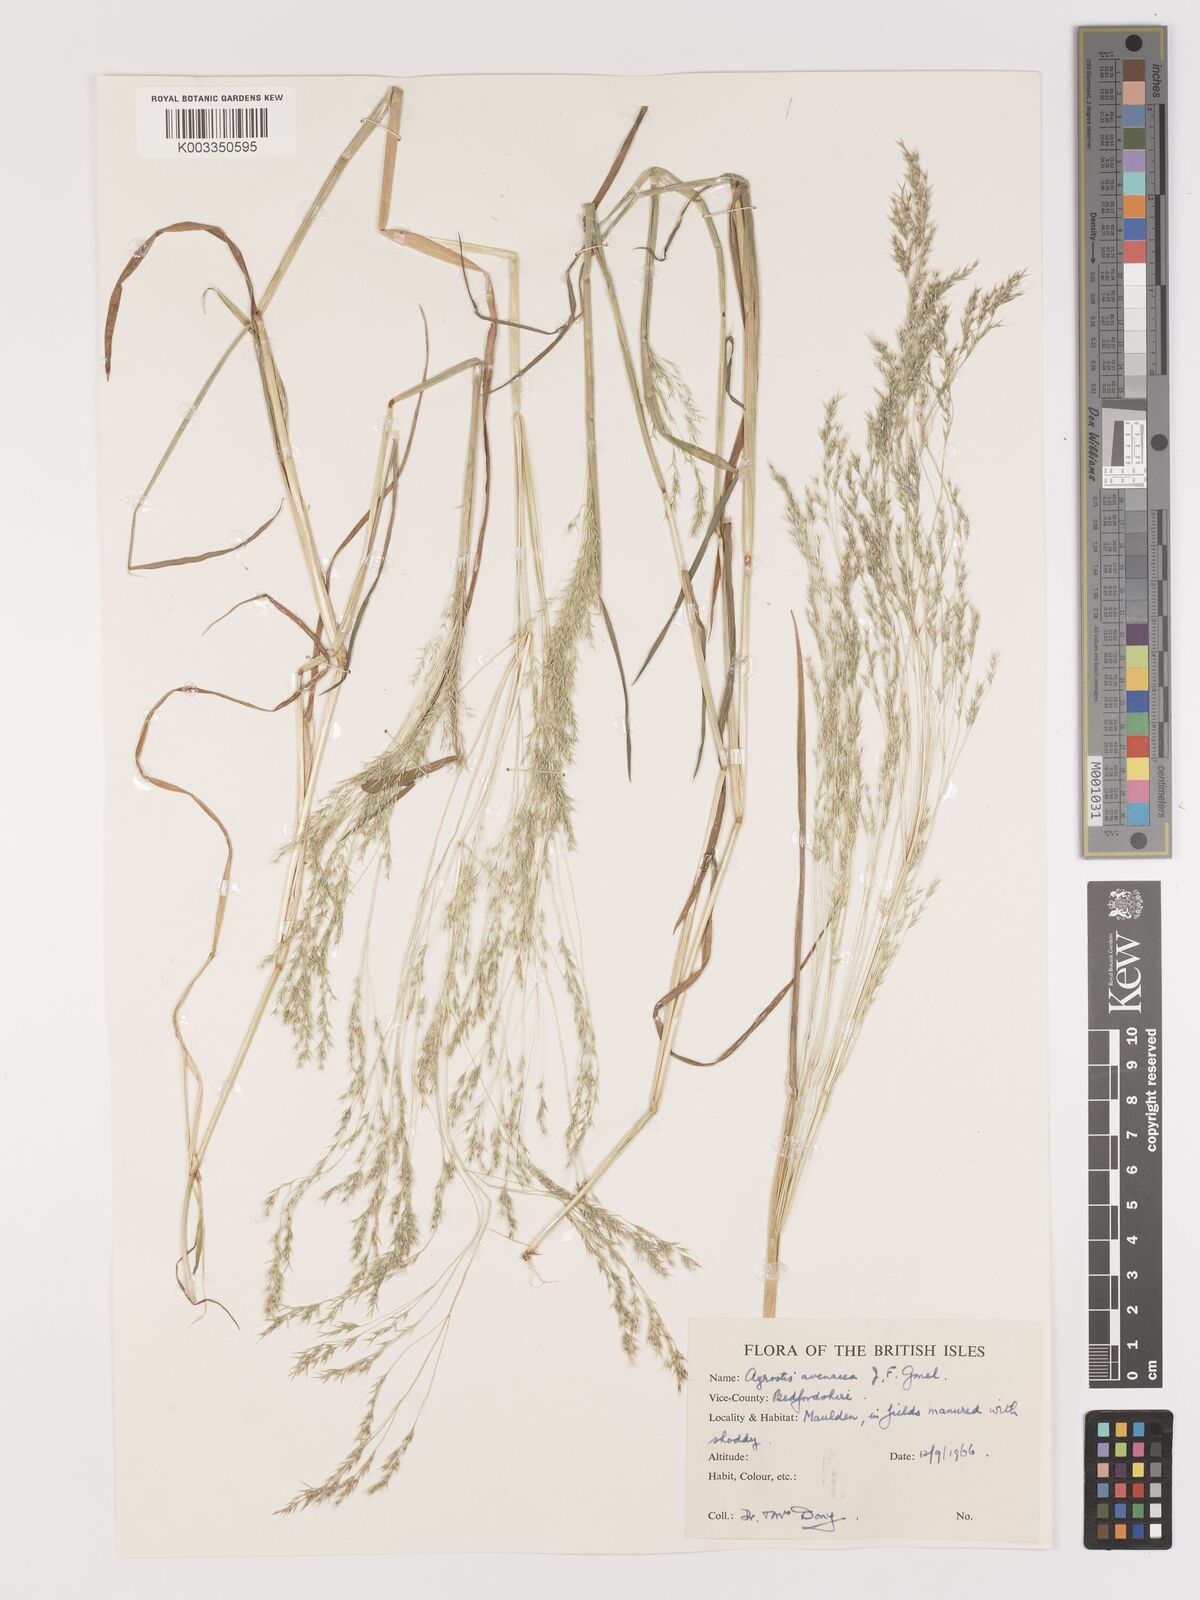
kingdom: Plantae
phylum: Tracheophyta
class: Liliopsida
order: Poales
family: Poaceae
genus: Lachnagrostis
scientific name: Lachnagrostis filiformis
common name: Bentgrass
